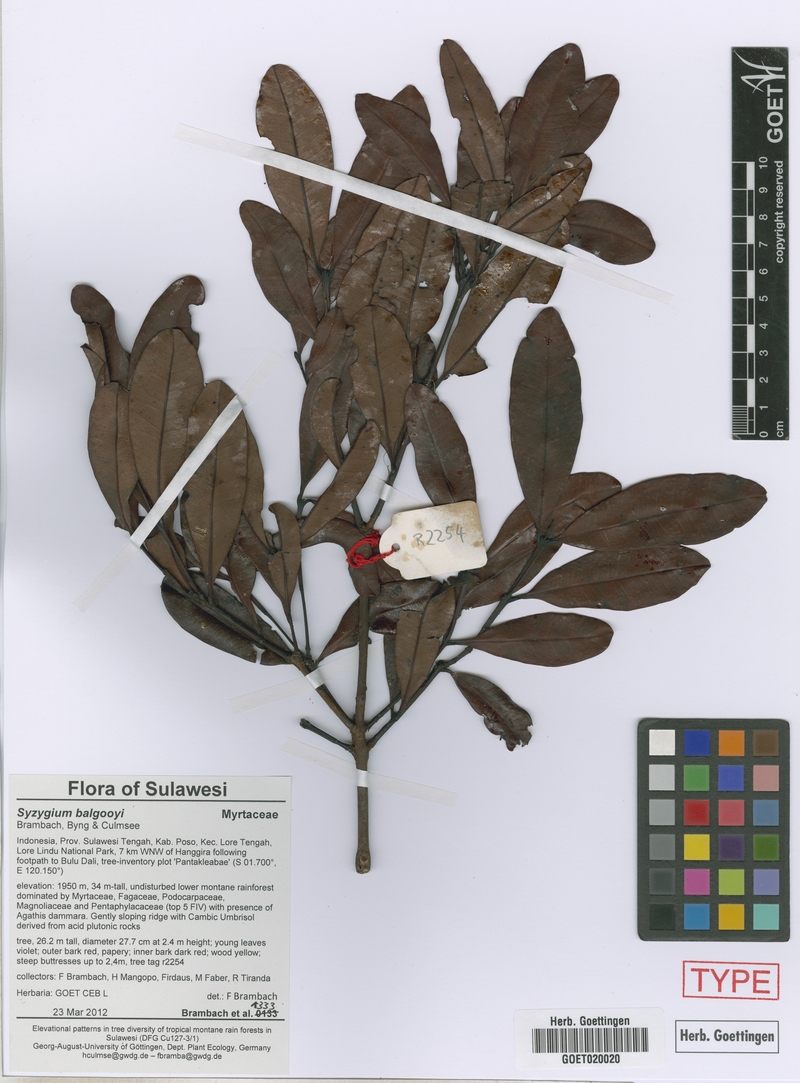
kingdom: Plantae
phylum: Tracheophyta
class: Magnoliopsida
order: Myrtales
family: Myrtaceae
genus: Syzygium
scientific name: Syzygium balgooyi
